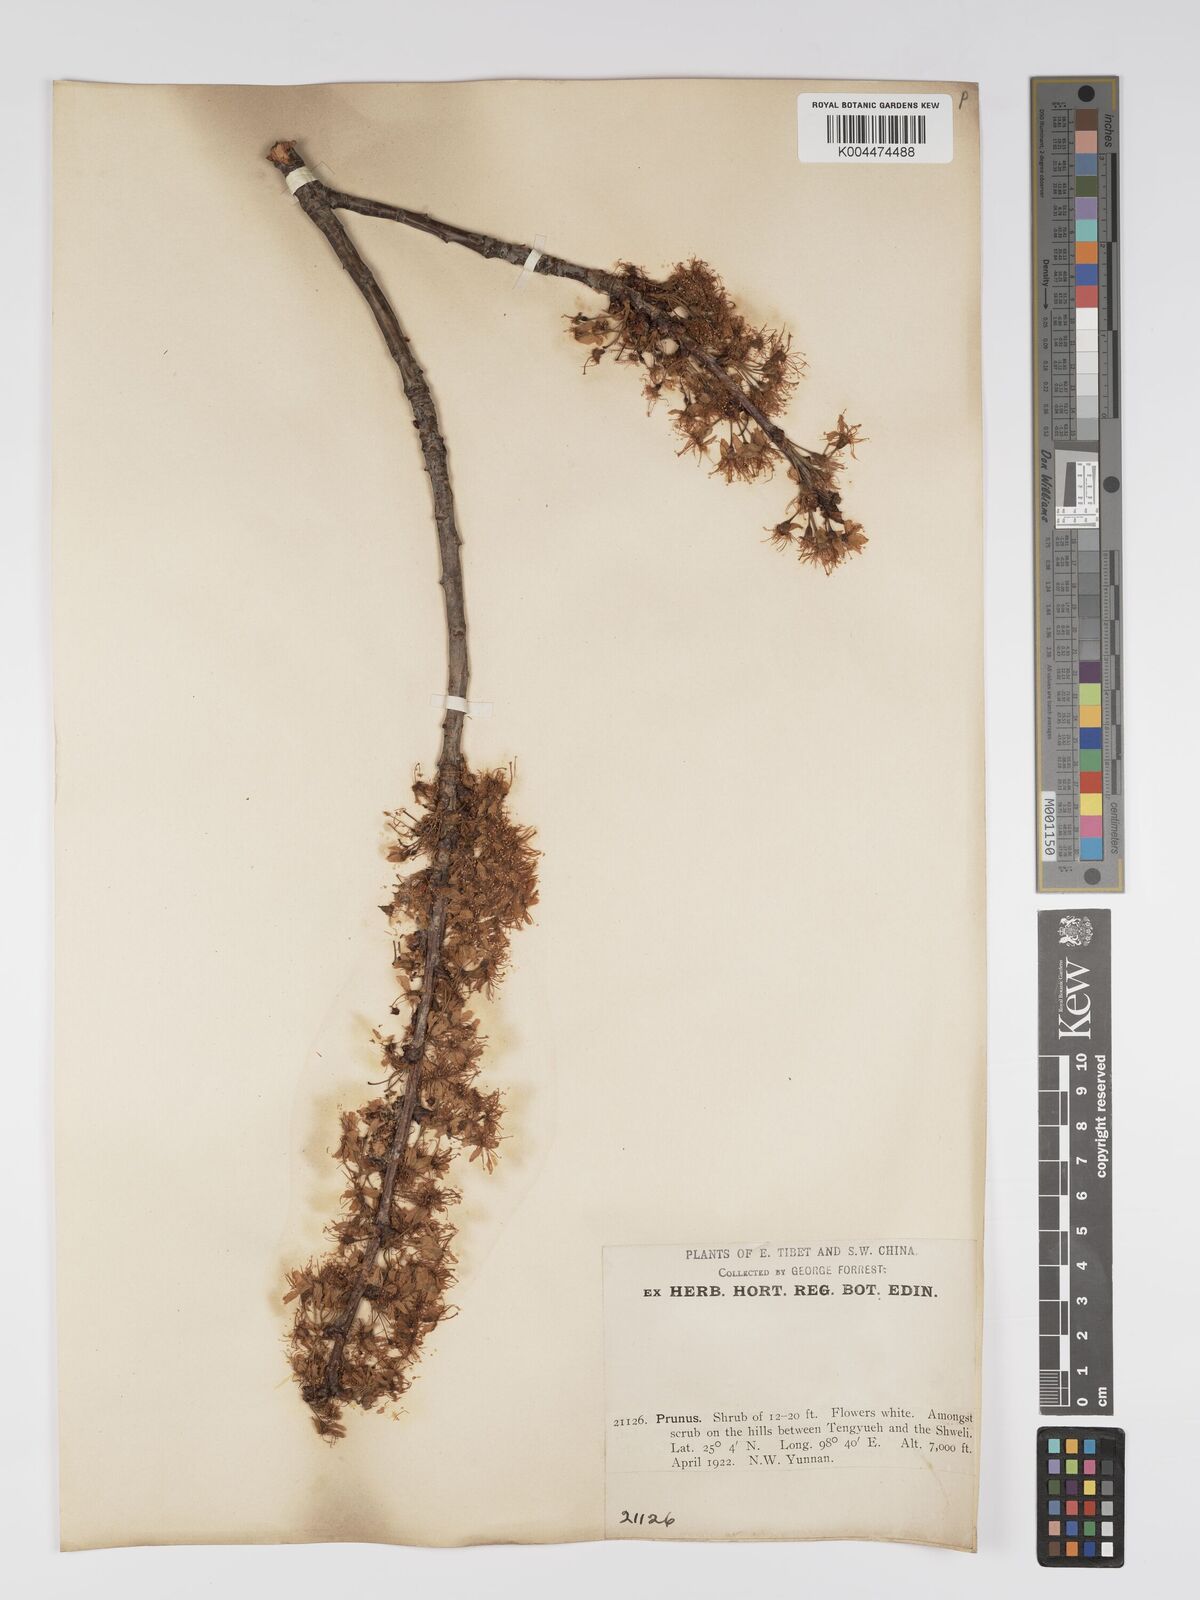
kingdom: Plantae
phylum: Tracheophyta
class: Magnoliopsida
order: Rosales
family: Rosaceae
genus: Prunus
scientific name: Prunus
